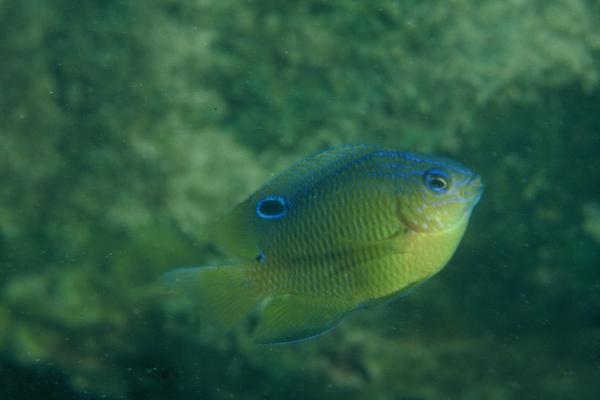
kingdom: Animalia
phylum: Chordata
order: Perciformes
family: Pomacentridae
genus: Pomacentrus
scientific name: Pomacentrus trilineatus
